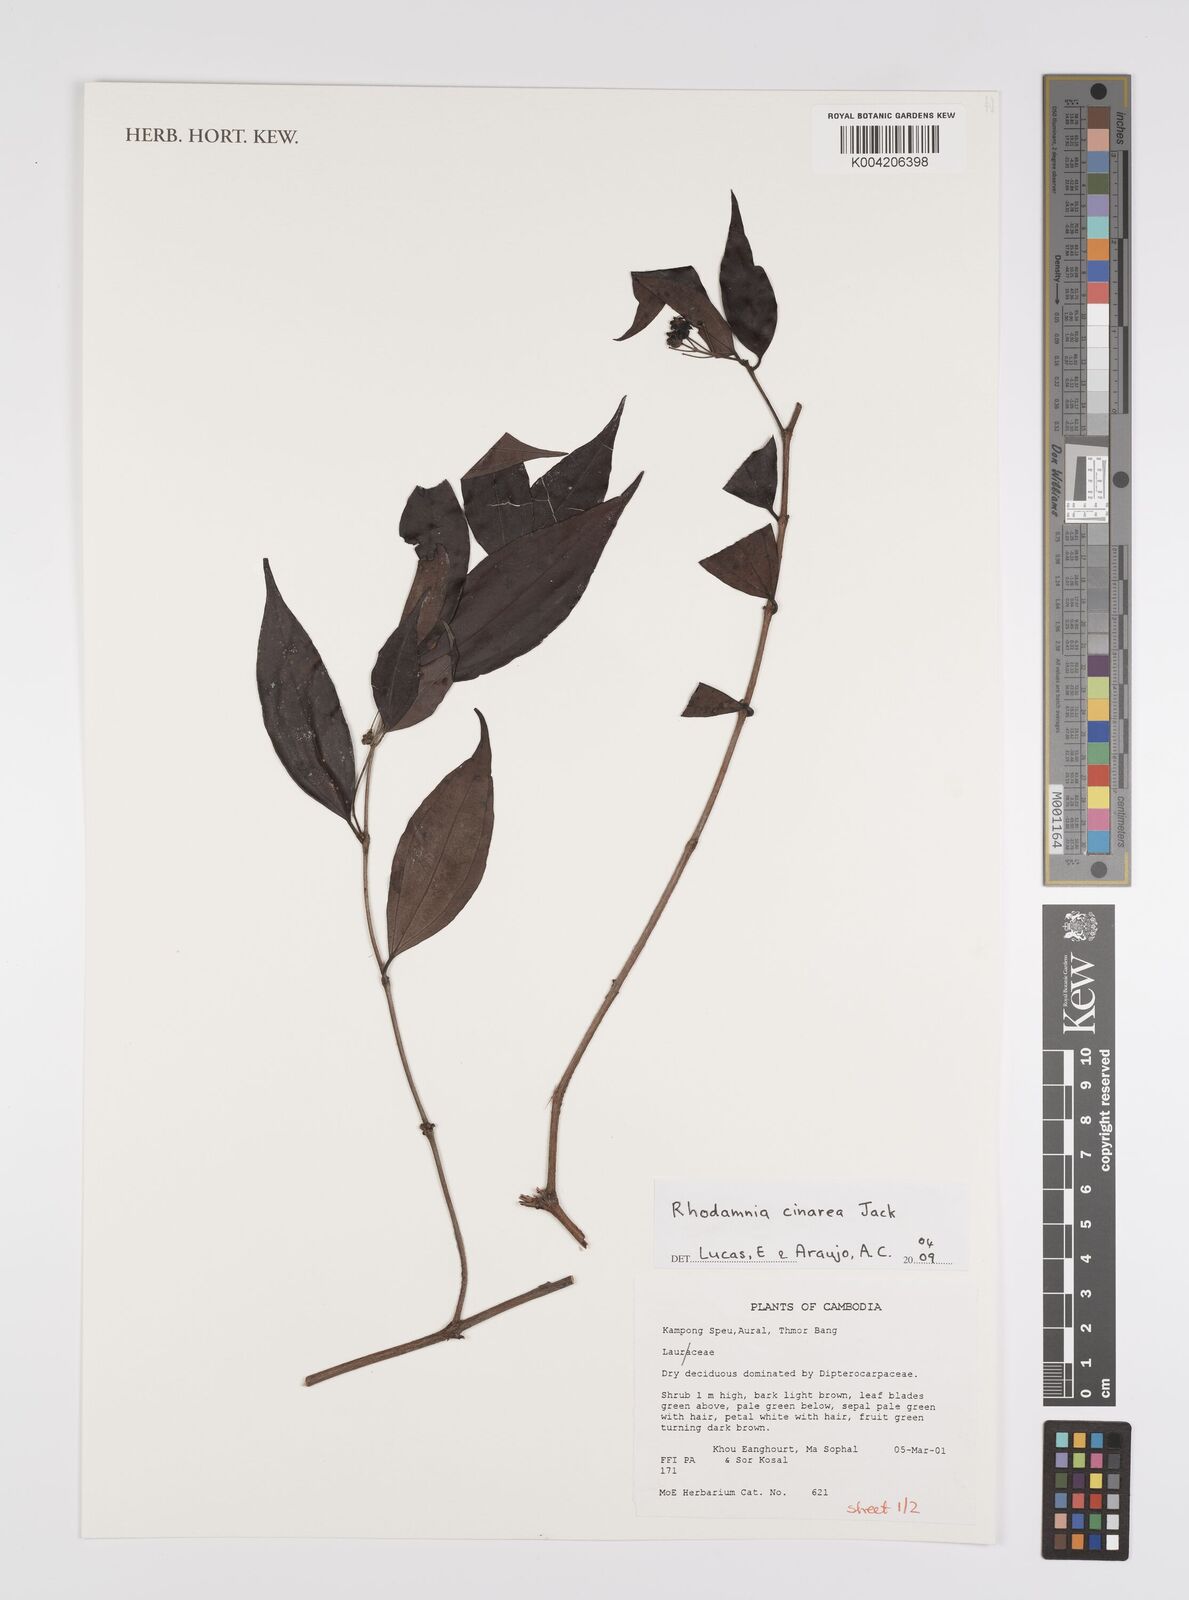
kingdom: Plantae
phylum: Tracheophyta
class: Magnoliopsida
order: Myrtales
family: Myrtaceae
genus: Rhodamnia
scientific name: Rhodamnia cinerea
